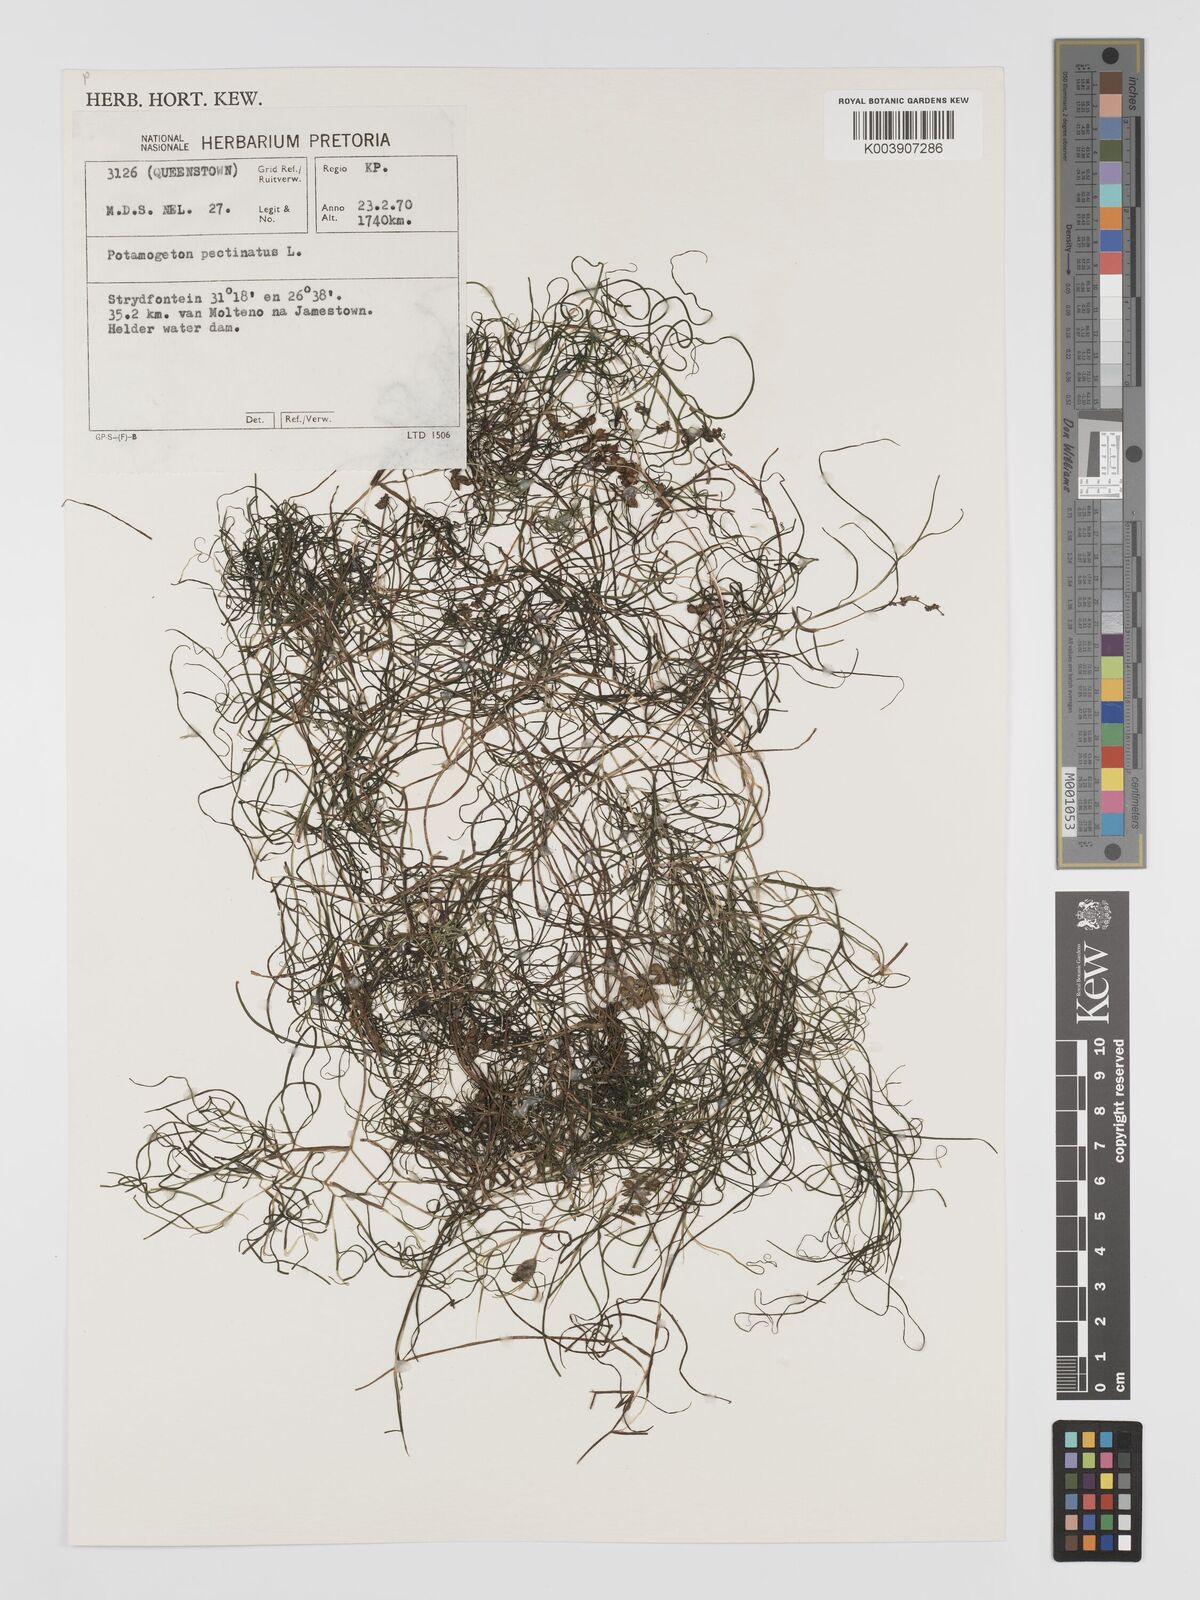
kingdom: Plantae
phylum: Tracheophyta
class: Liliopsida
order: Alismatales
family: Potamogetonaceae
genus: Stuckenia
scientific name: Stuckenia pectinata
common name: Sago pondweed
